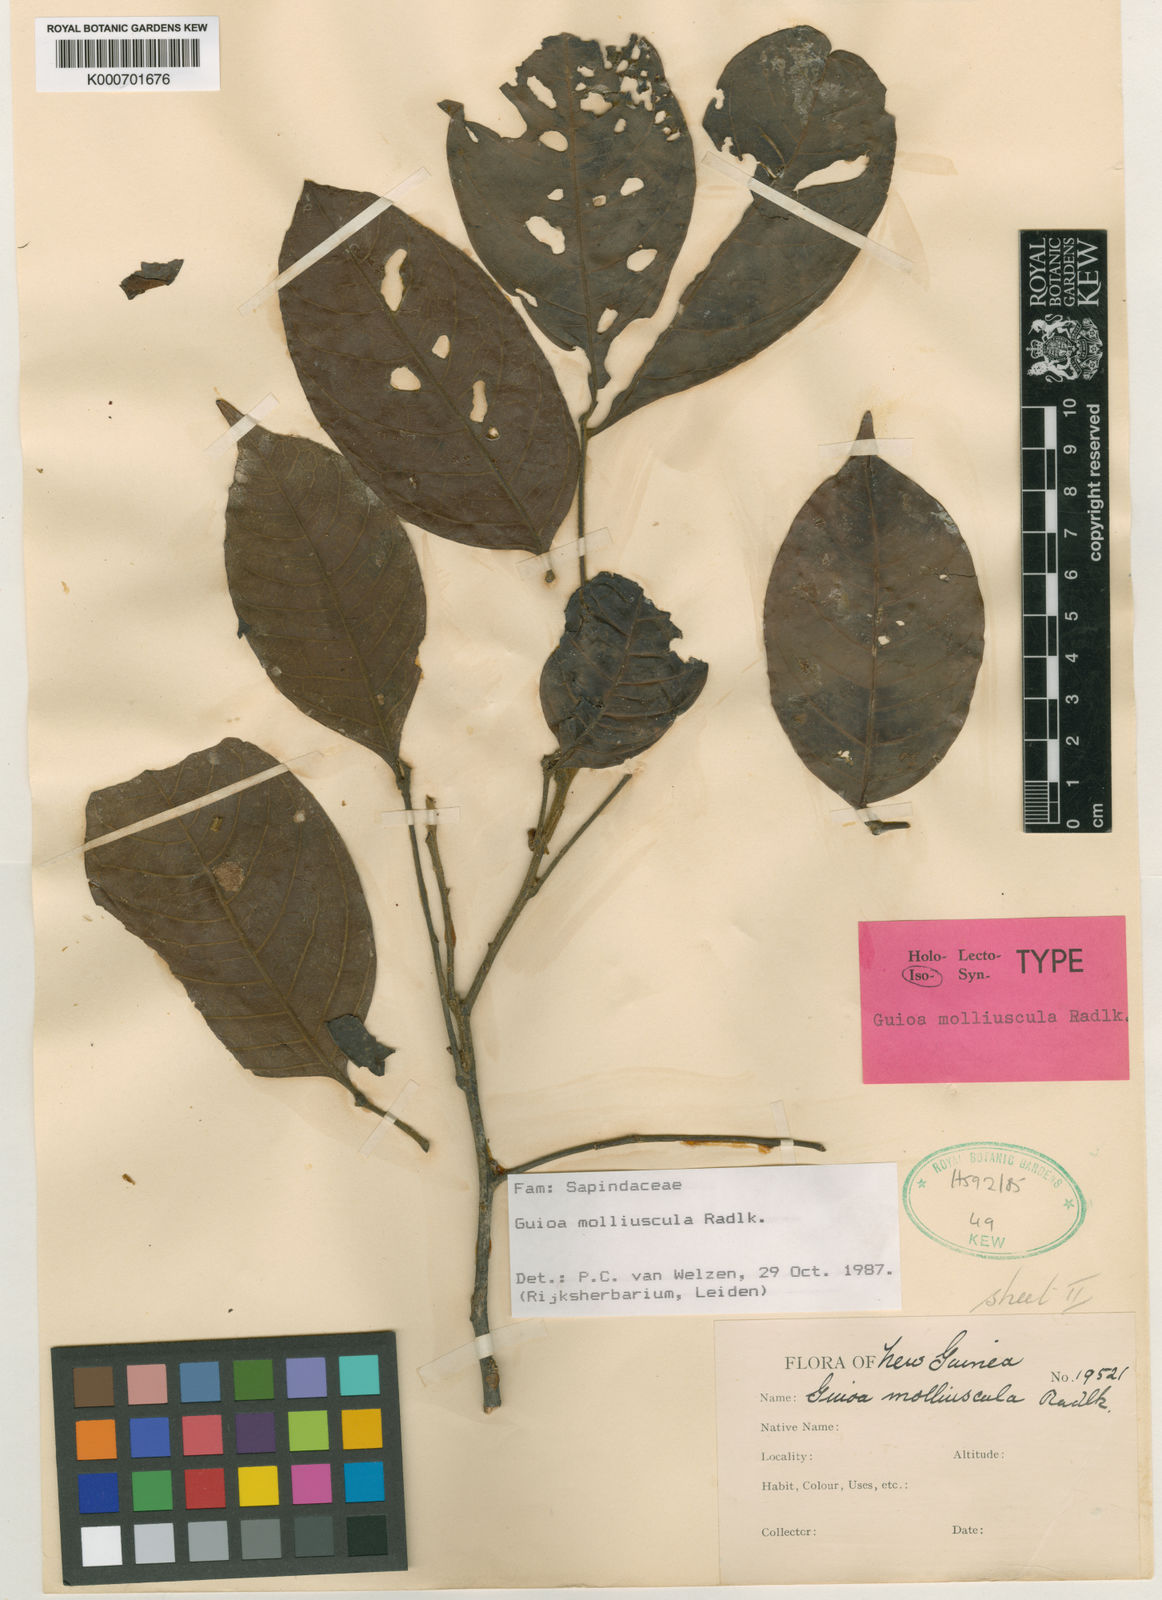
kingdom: Plantae
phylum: Tracheophyta
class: Magnoliopsida
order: Sapindales
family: Sapindaceae
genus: Guioa
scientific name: Guioa molliuscula
